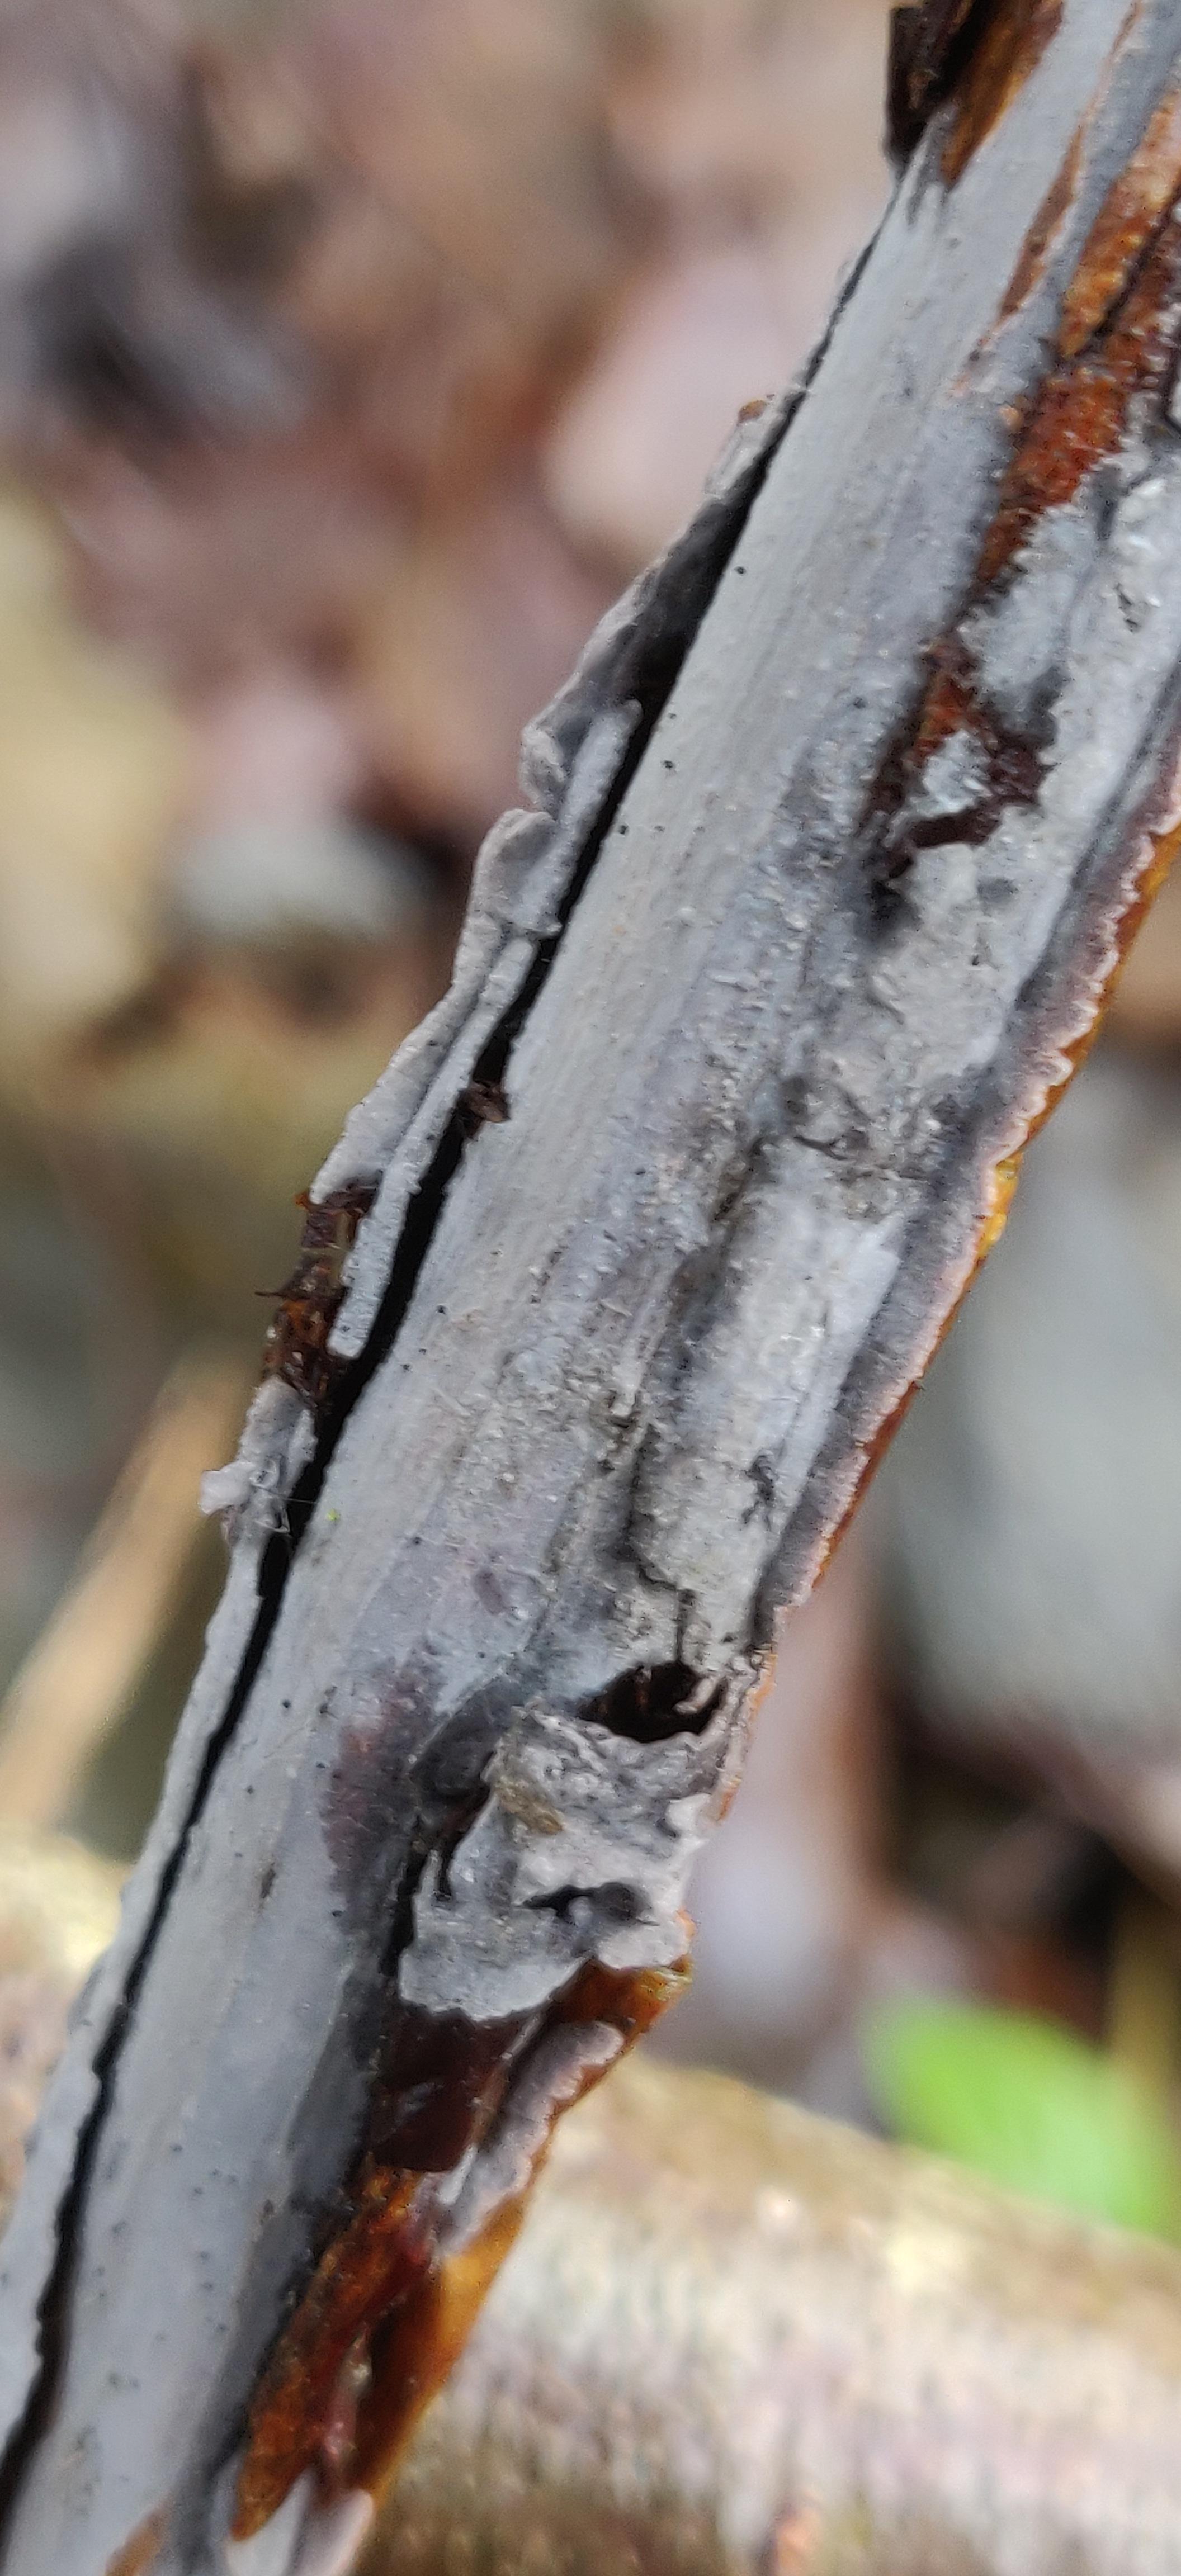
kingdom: Fungi
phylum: Basidiomycota
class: Agaricomycetes
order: Russulales
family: Peniophoraceae
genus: Peniophora
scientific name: Peniophora
